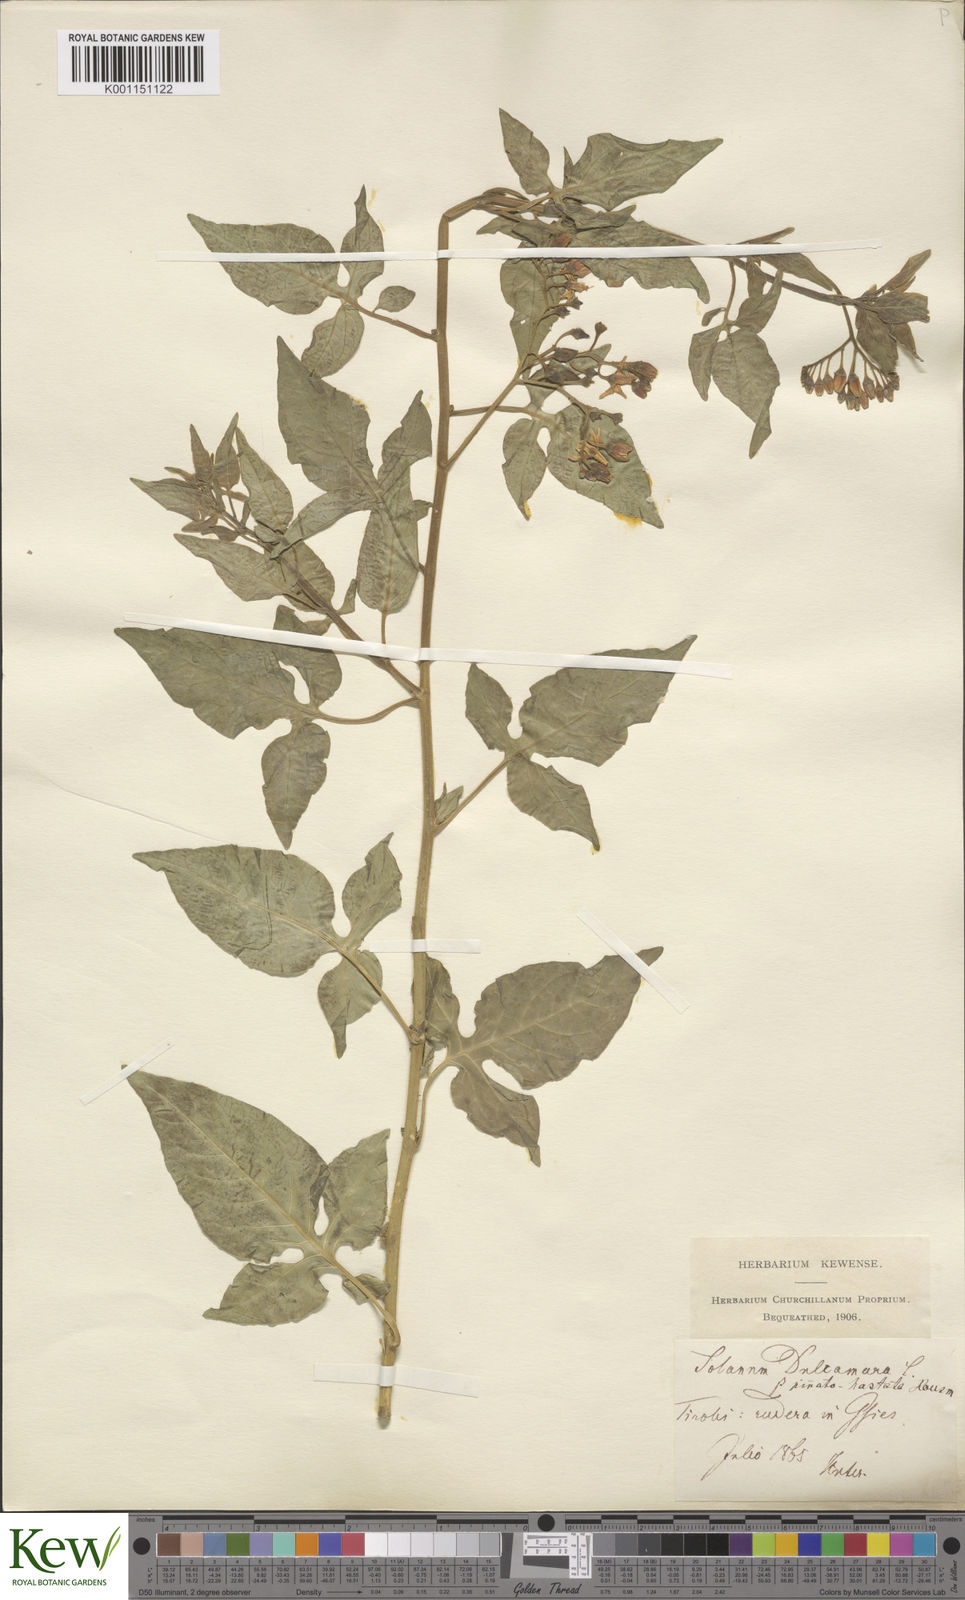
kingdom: Plantae
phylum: Tracheophyta
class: Magnoliopsida
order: Solanales
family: Solanaceae
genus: Solanum
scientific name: Solanum dulcamara
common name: Climbing nightshade
